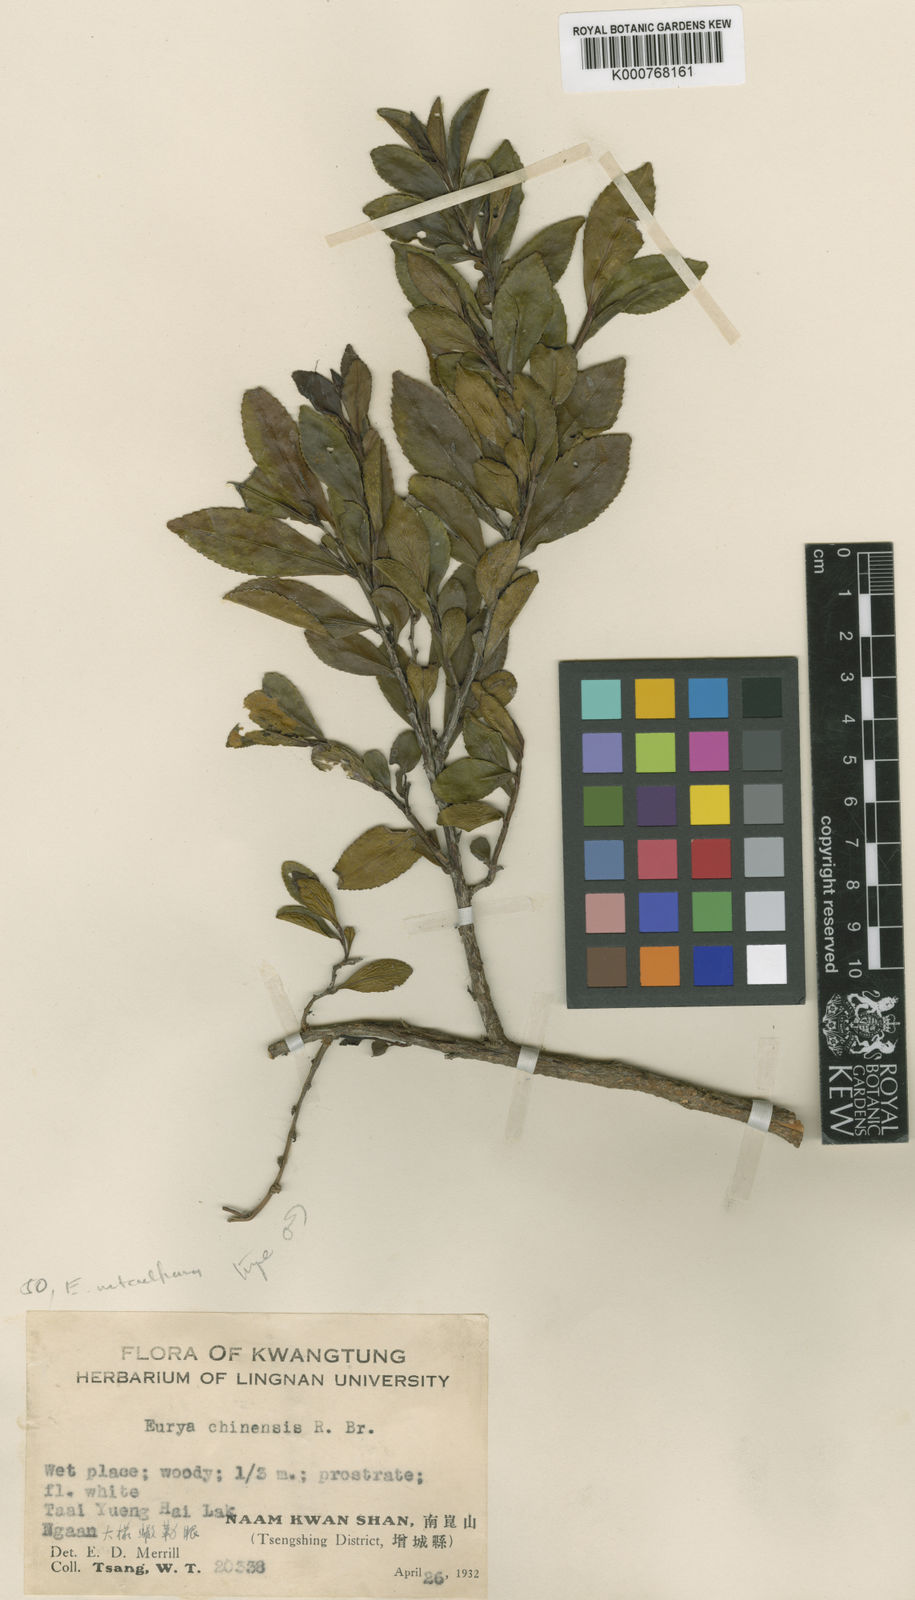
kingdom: Plantae
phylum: Tracheophyta
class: Magnoliopsida
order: Ericales
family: Pentaphylacaceae
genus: Eurya
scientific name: Eurya metcalfiana
